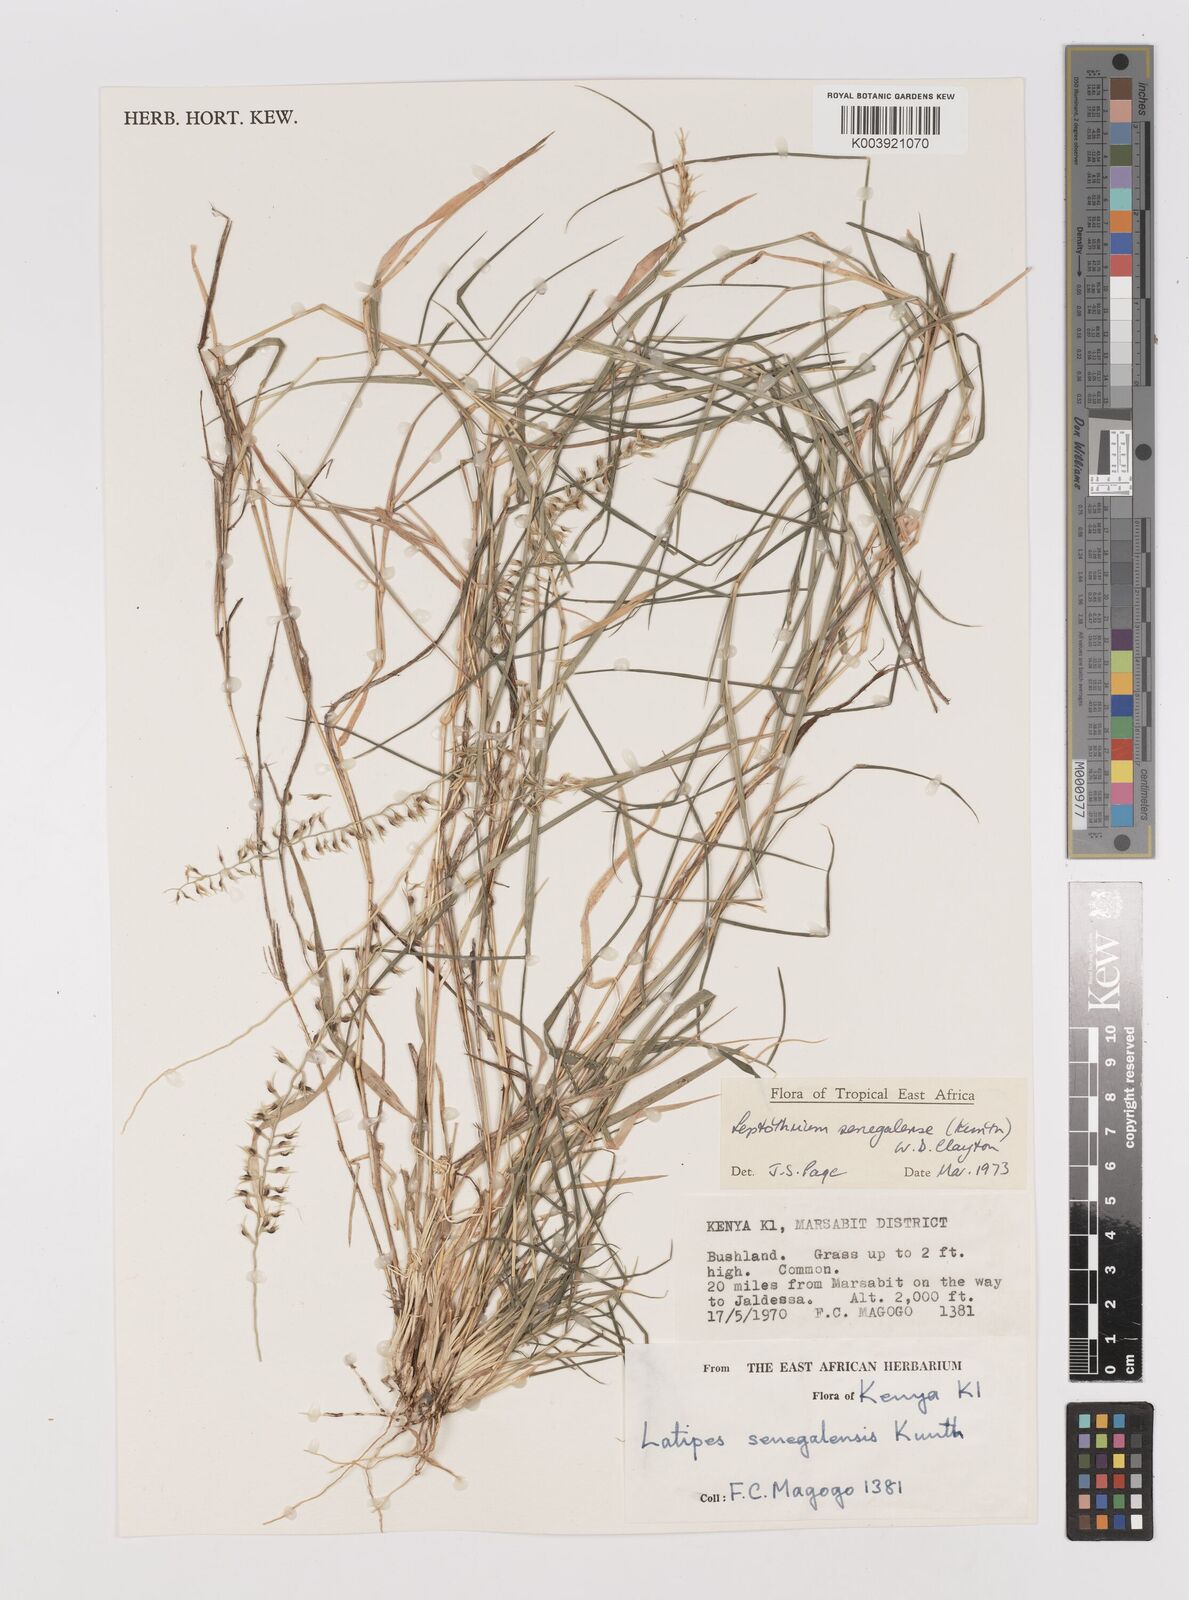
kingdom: Plantae
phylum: Tracheophyta
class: Liliopsida
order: Poales
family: Poaceae
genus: Leptothrium
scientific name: Leptothrium senegalense
